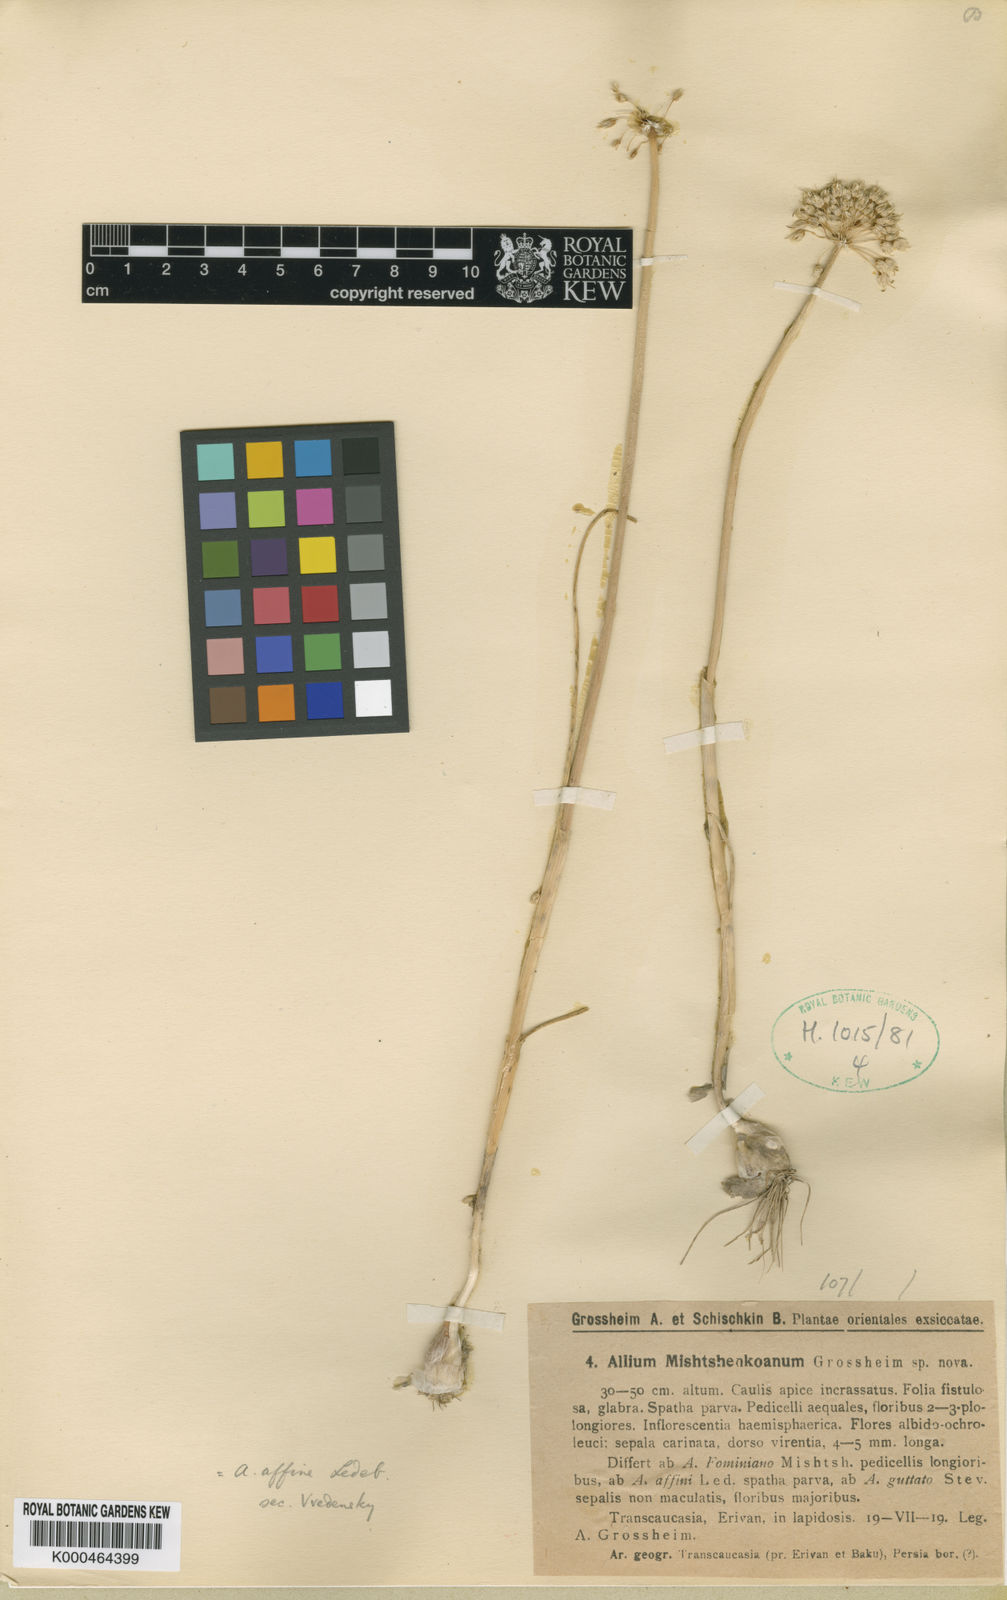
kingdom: Plantae
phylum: Tracheophyta
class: Liliopsida
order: Asparagales
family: Amaryllidaceae
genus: Allium
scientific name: Allium affine
